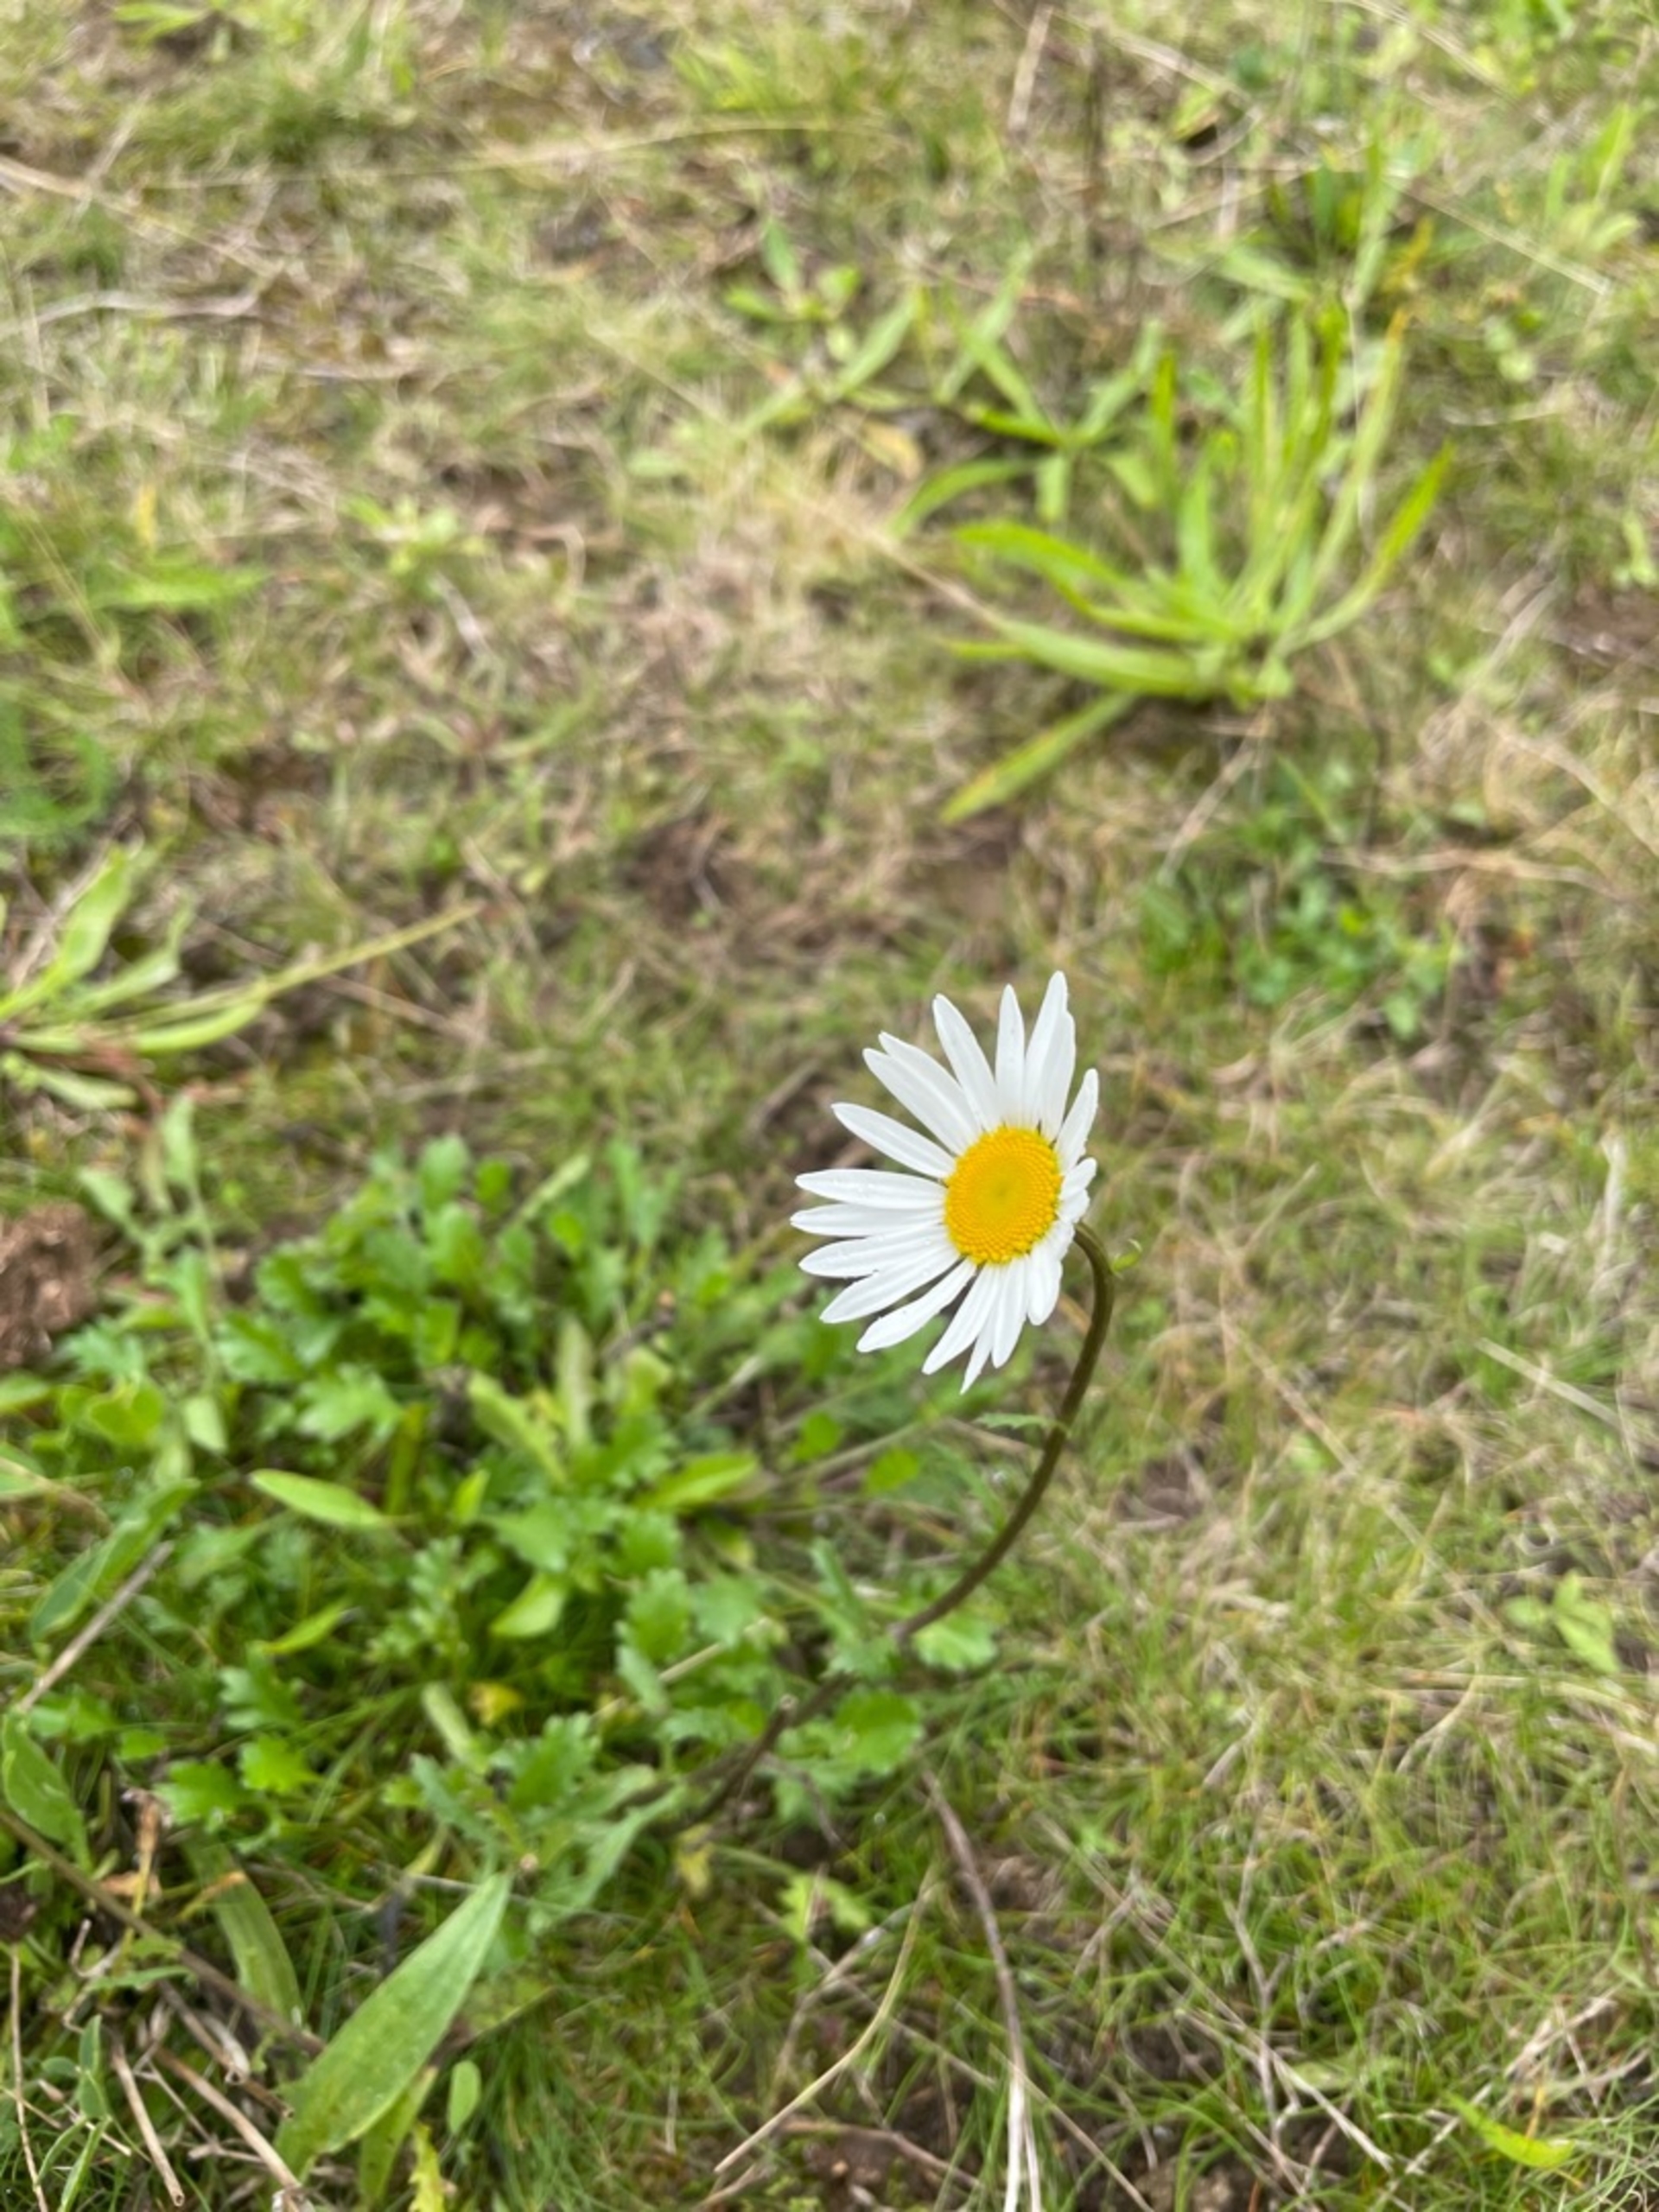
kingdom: Plantae
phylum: Tracheophyta
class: Magnoliopsida
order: Asterales
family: Asteraceae
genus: Leucanthemum
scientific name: Leucanthemum vulgare
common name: Hvid okseøje
